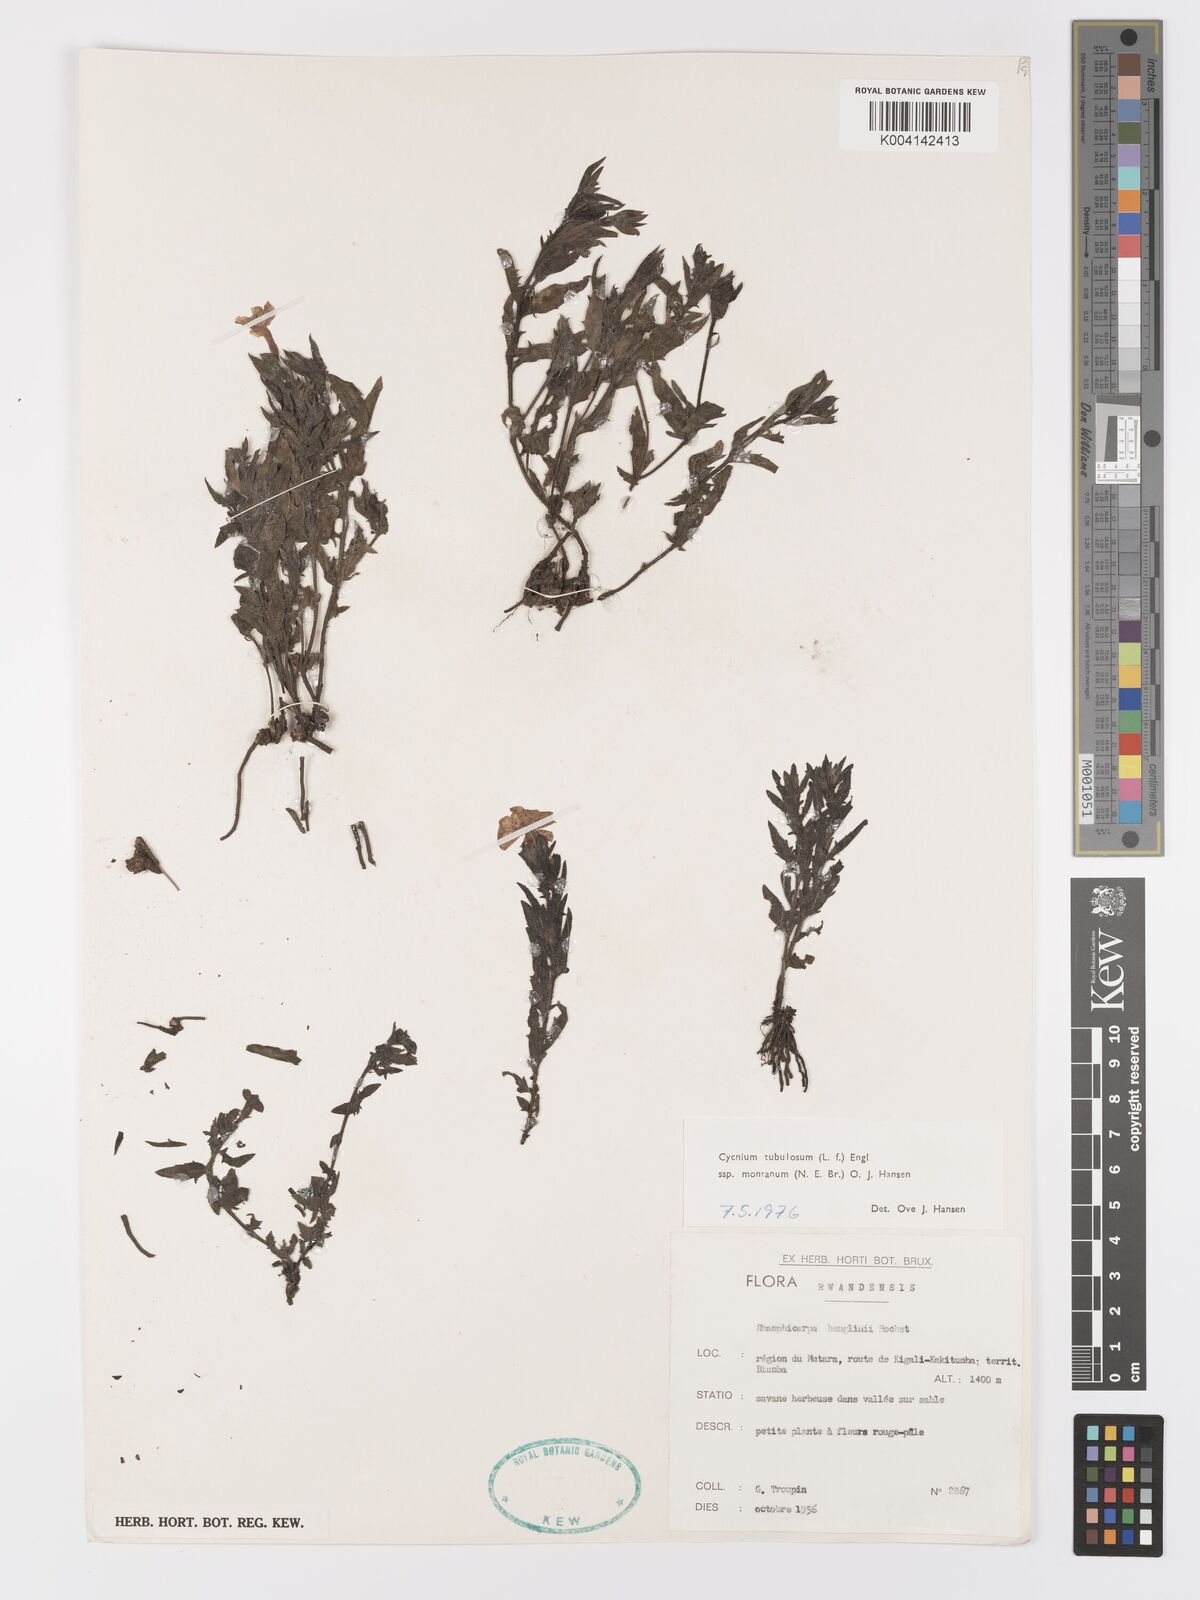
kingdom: Plantae
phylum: Tracheophyta
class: Magnoliopsida
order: Lamiales
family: Orobanchaceae
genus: Cycnium
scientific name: Cycnium tubulosum
